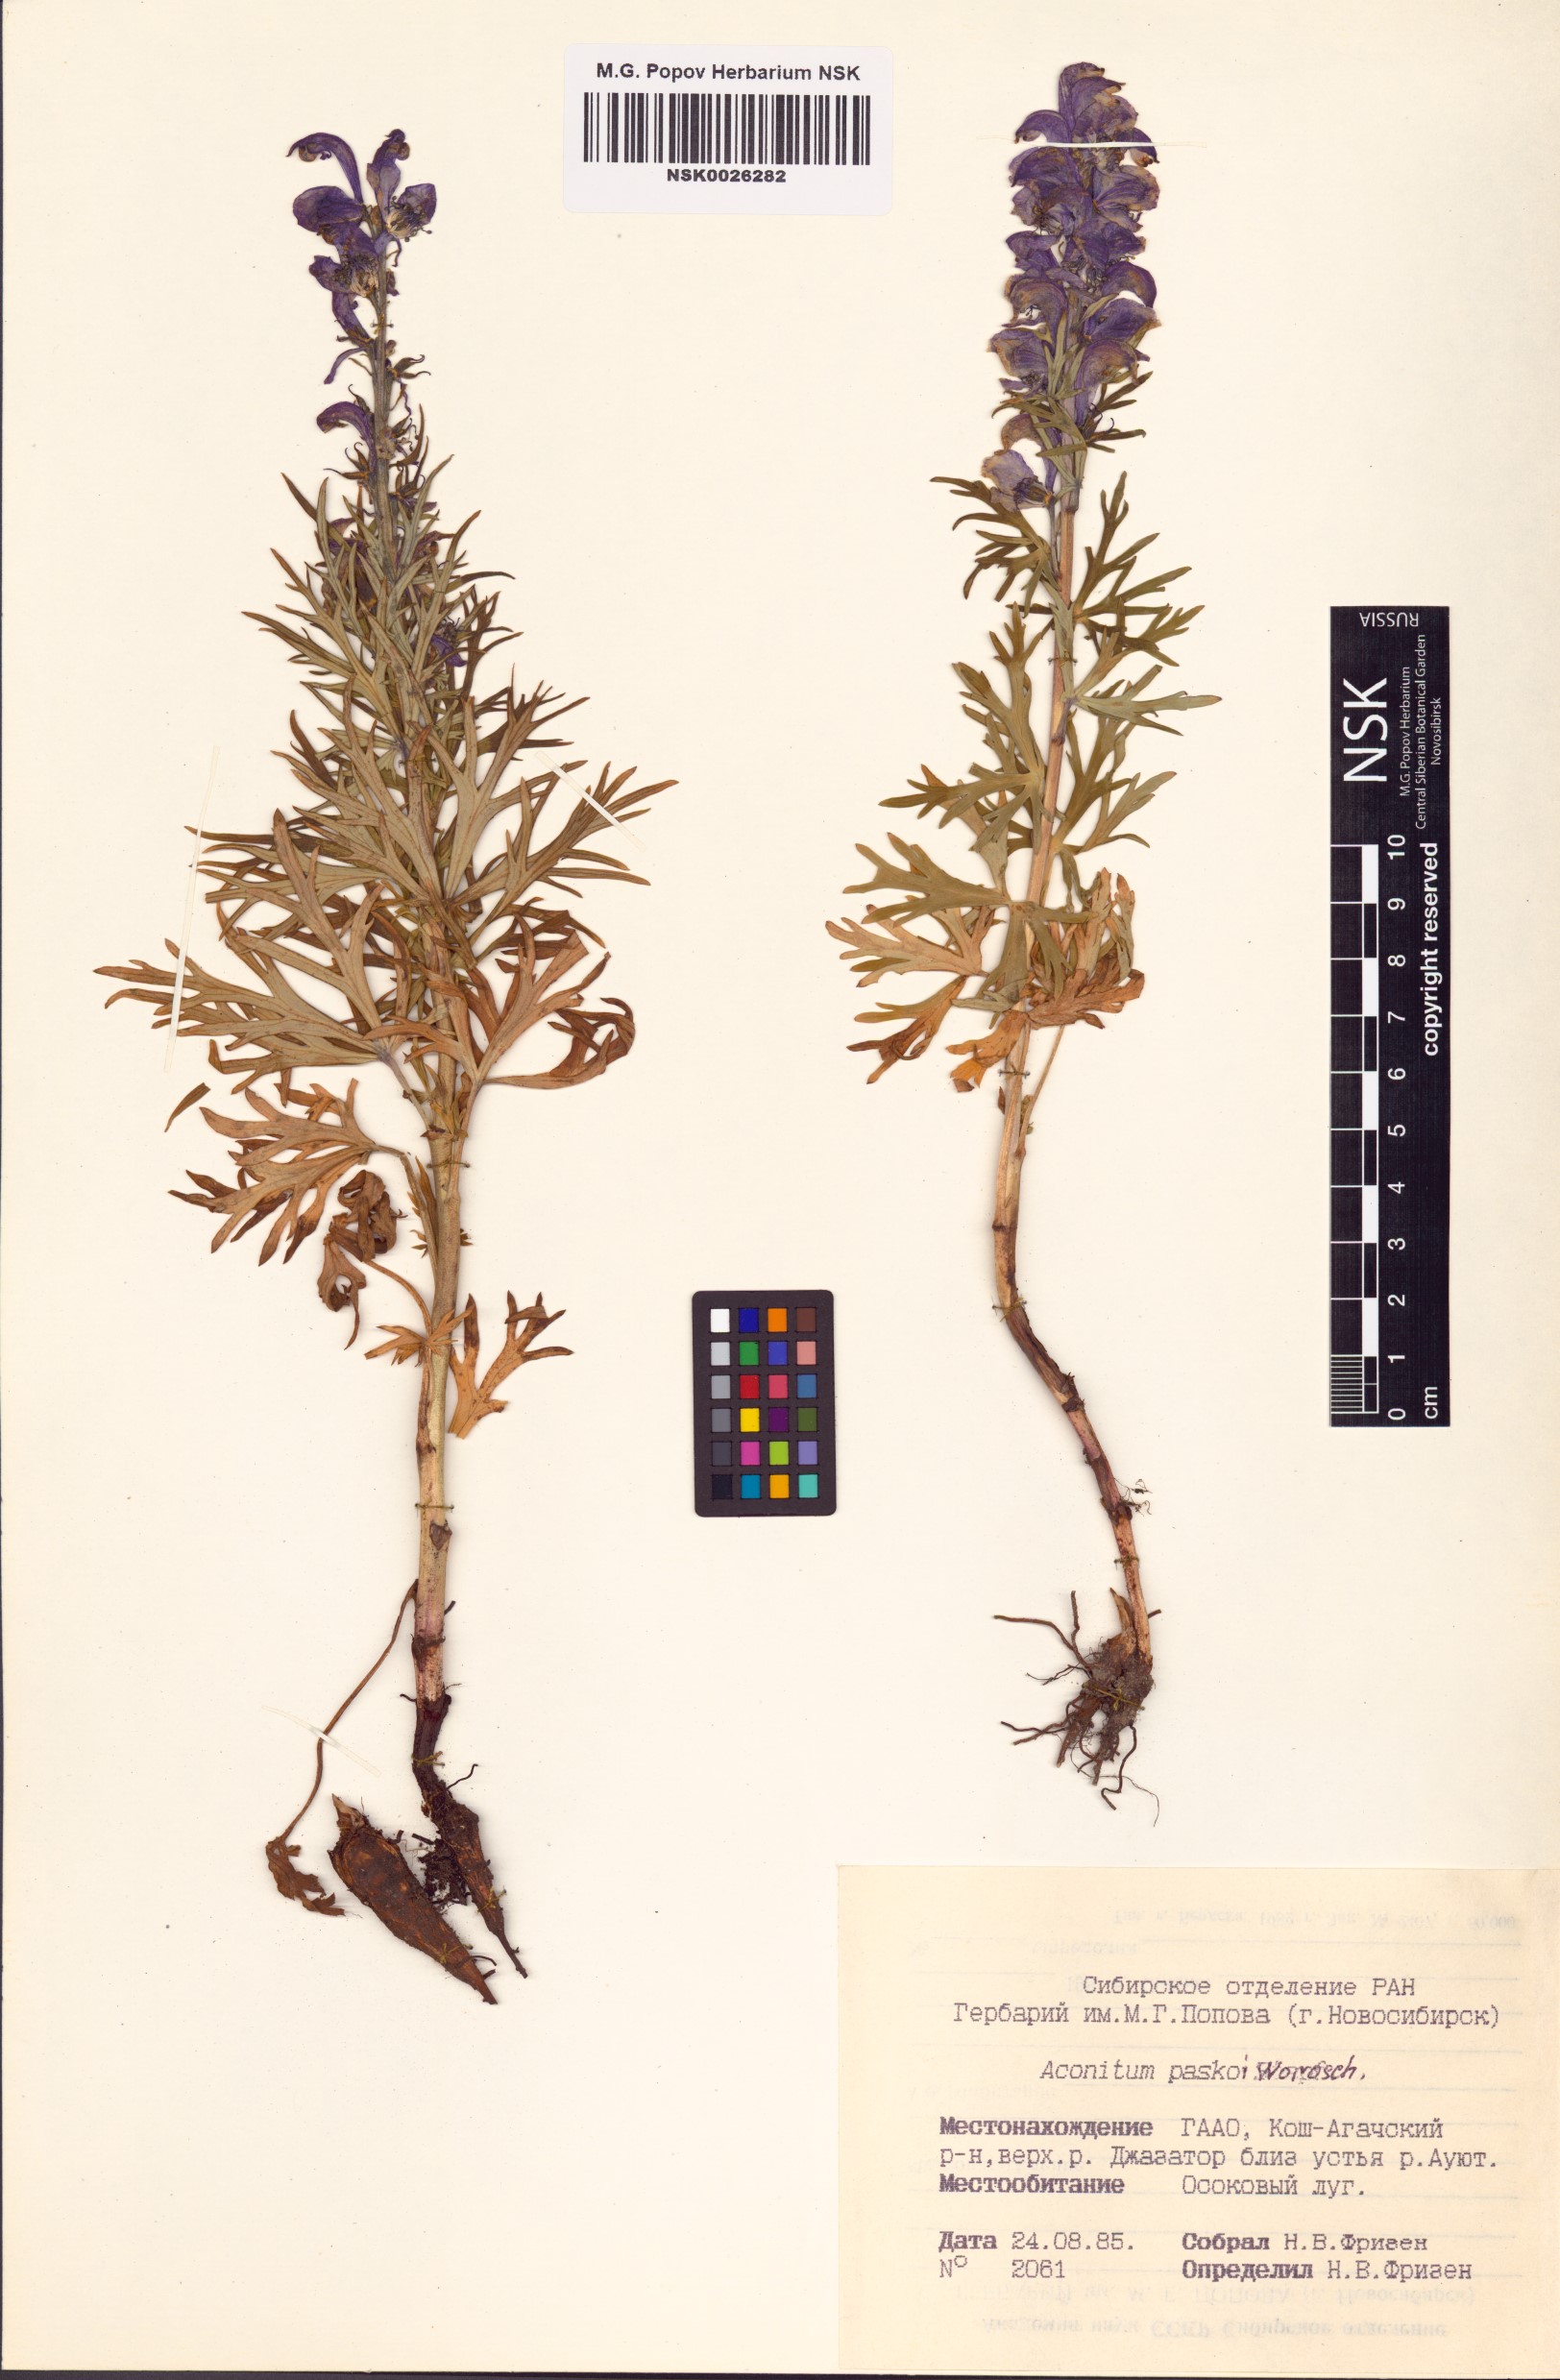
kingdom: Plantae
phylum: Tracheophyta
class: Magnoliopsida
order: Ranunculales
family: Ranunculaceae
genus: Aconitum
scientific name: Aconitum pascoi
